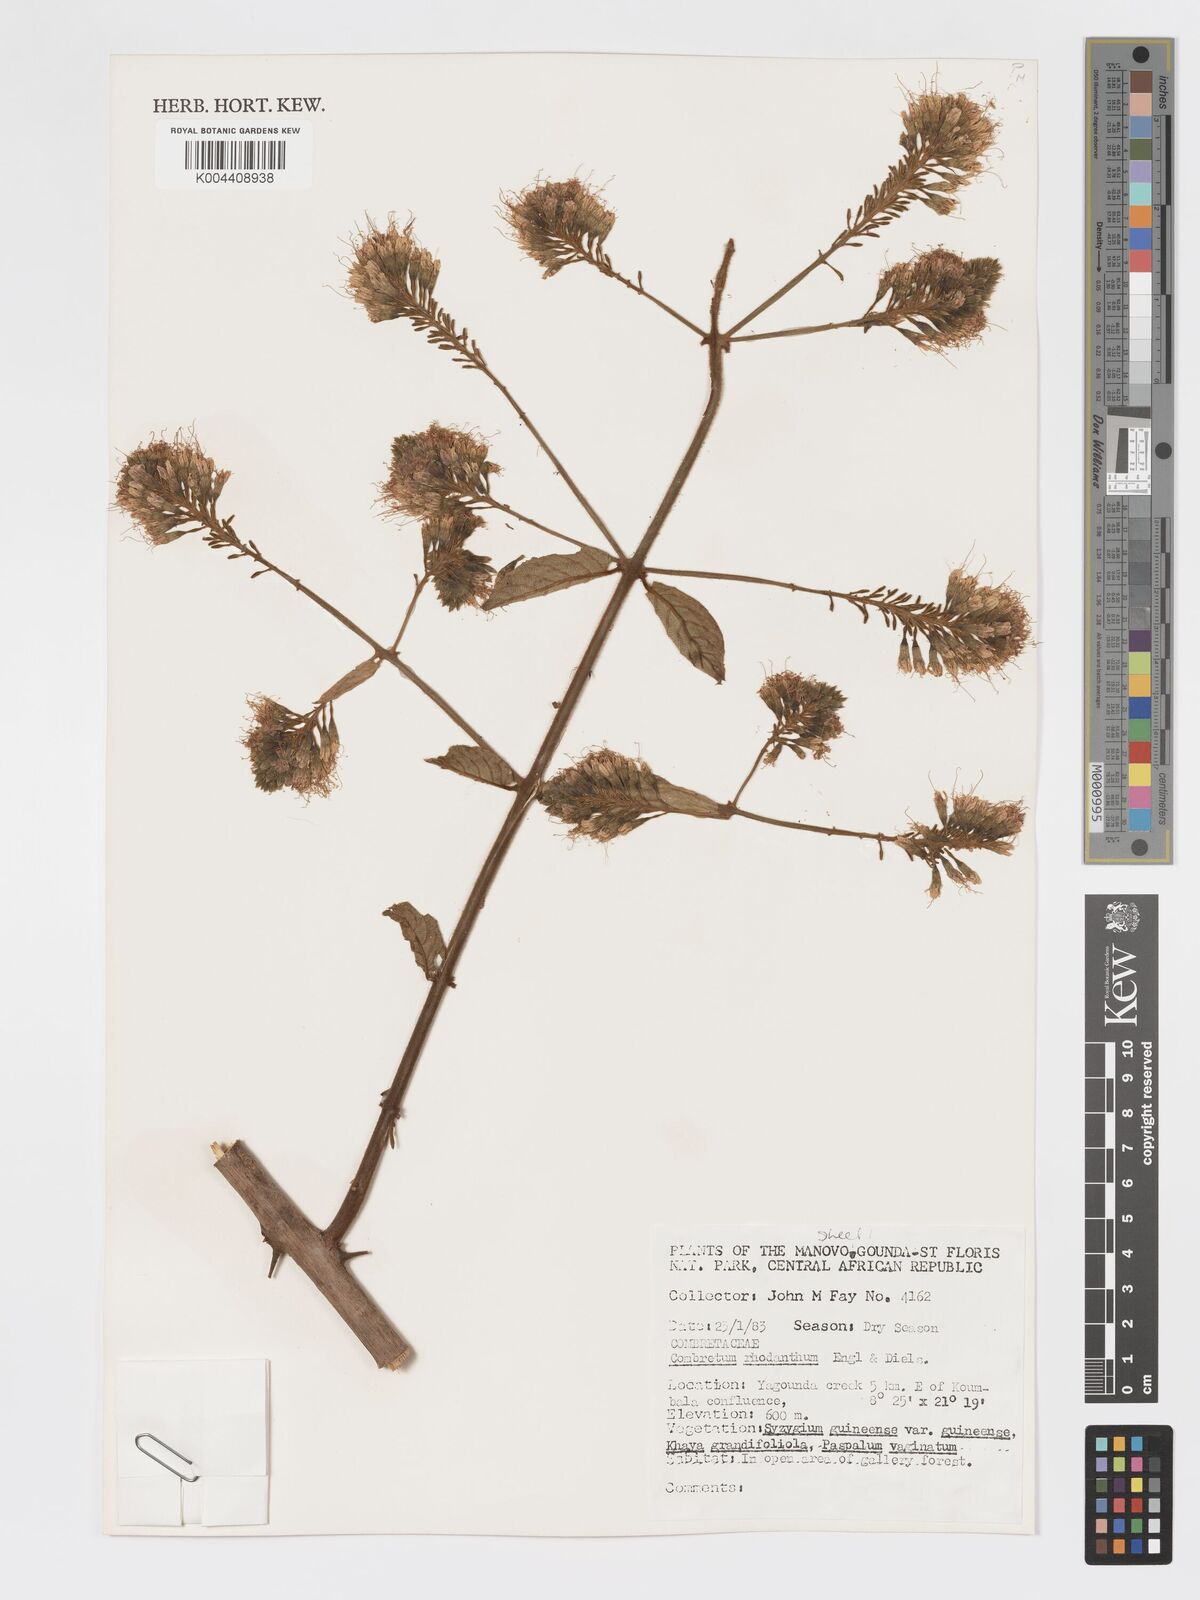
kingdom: Plantae
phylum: Tracheophyta
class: Magnoliopsida
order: Myrtales
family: Combretaceae
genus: Combretum
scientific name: Combretum comosum
